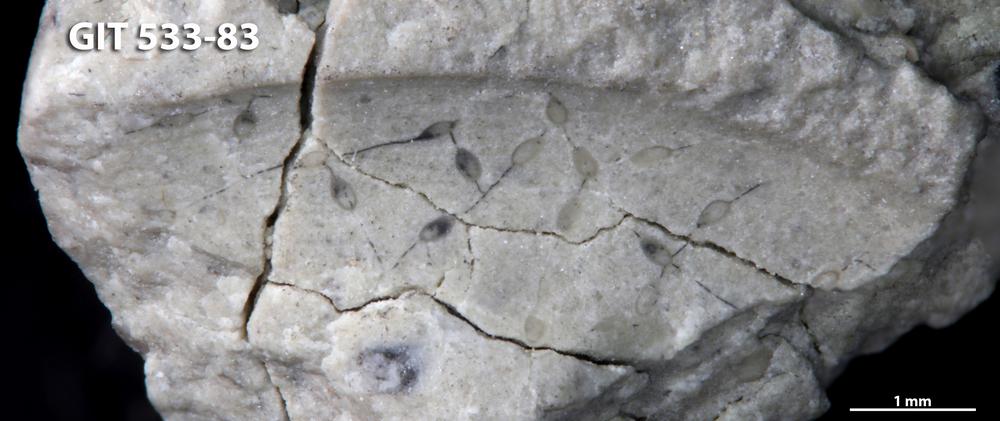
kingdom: Animalia
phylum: Bryozoa
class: Gymnolaemata
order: Ctenostomatida
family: Ropalonariidae
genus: Ropalonaria
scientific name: Ropalonaria
